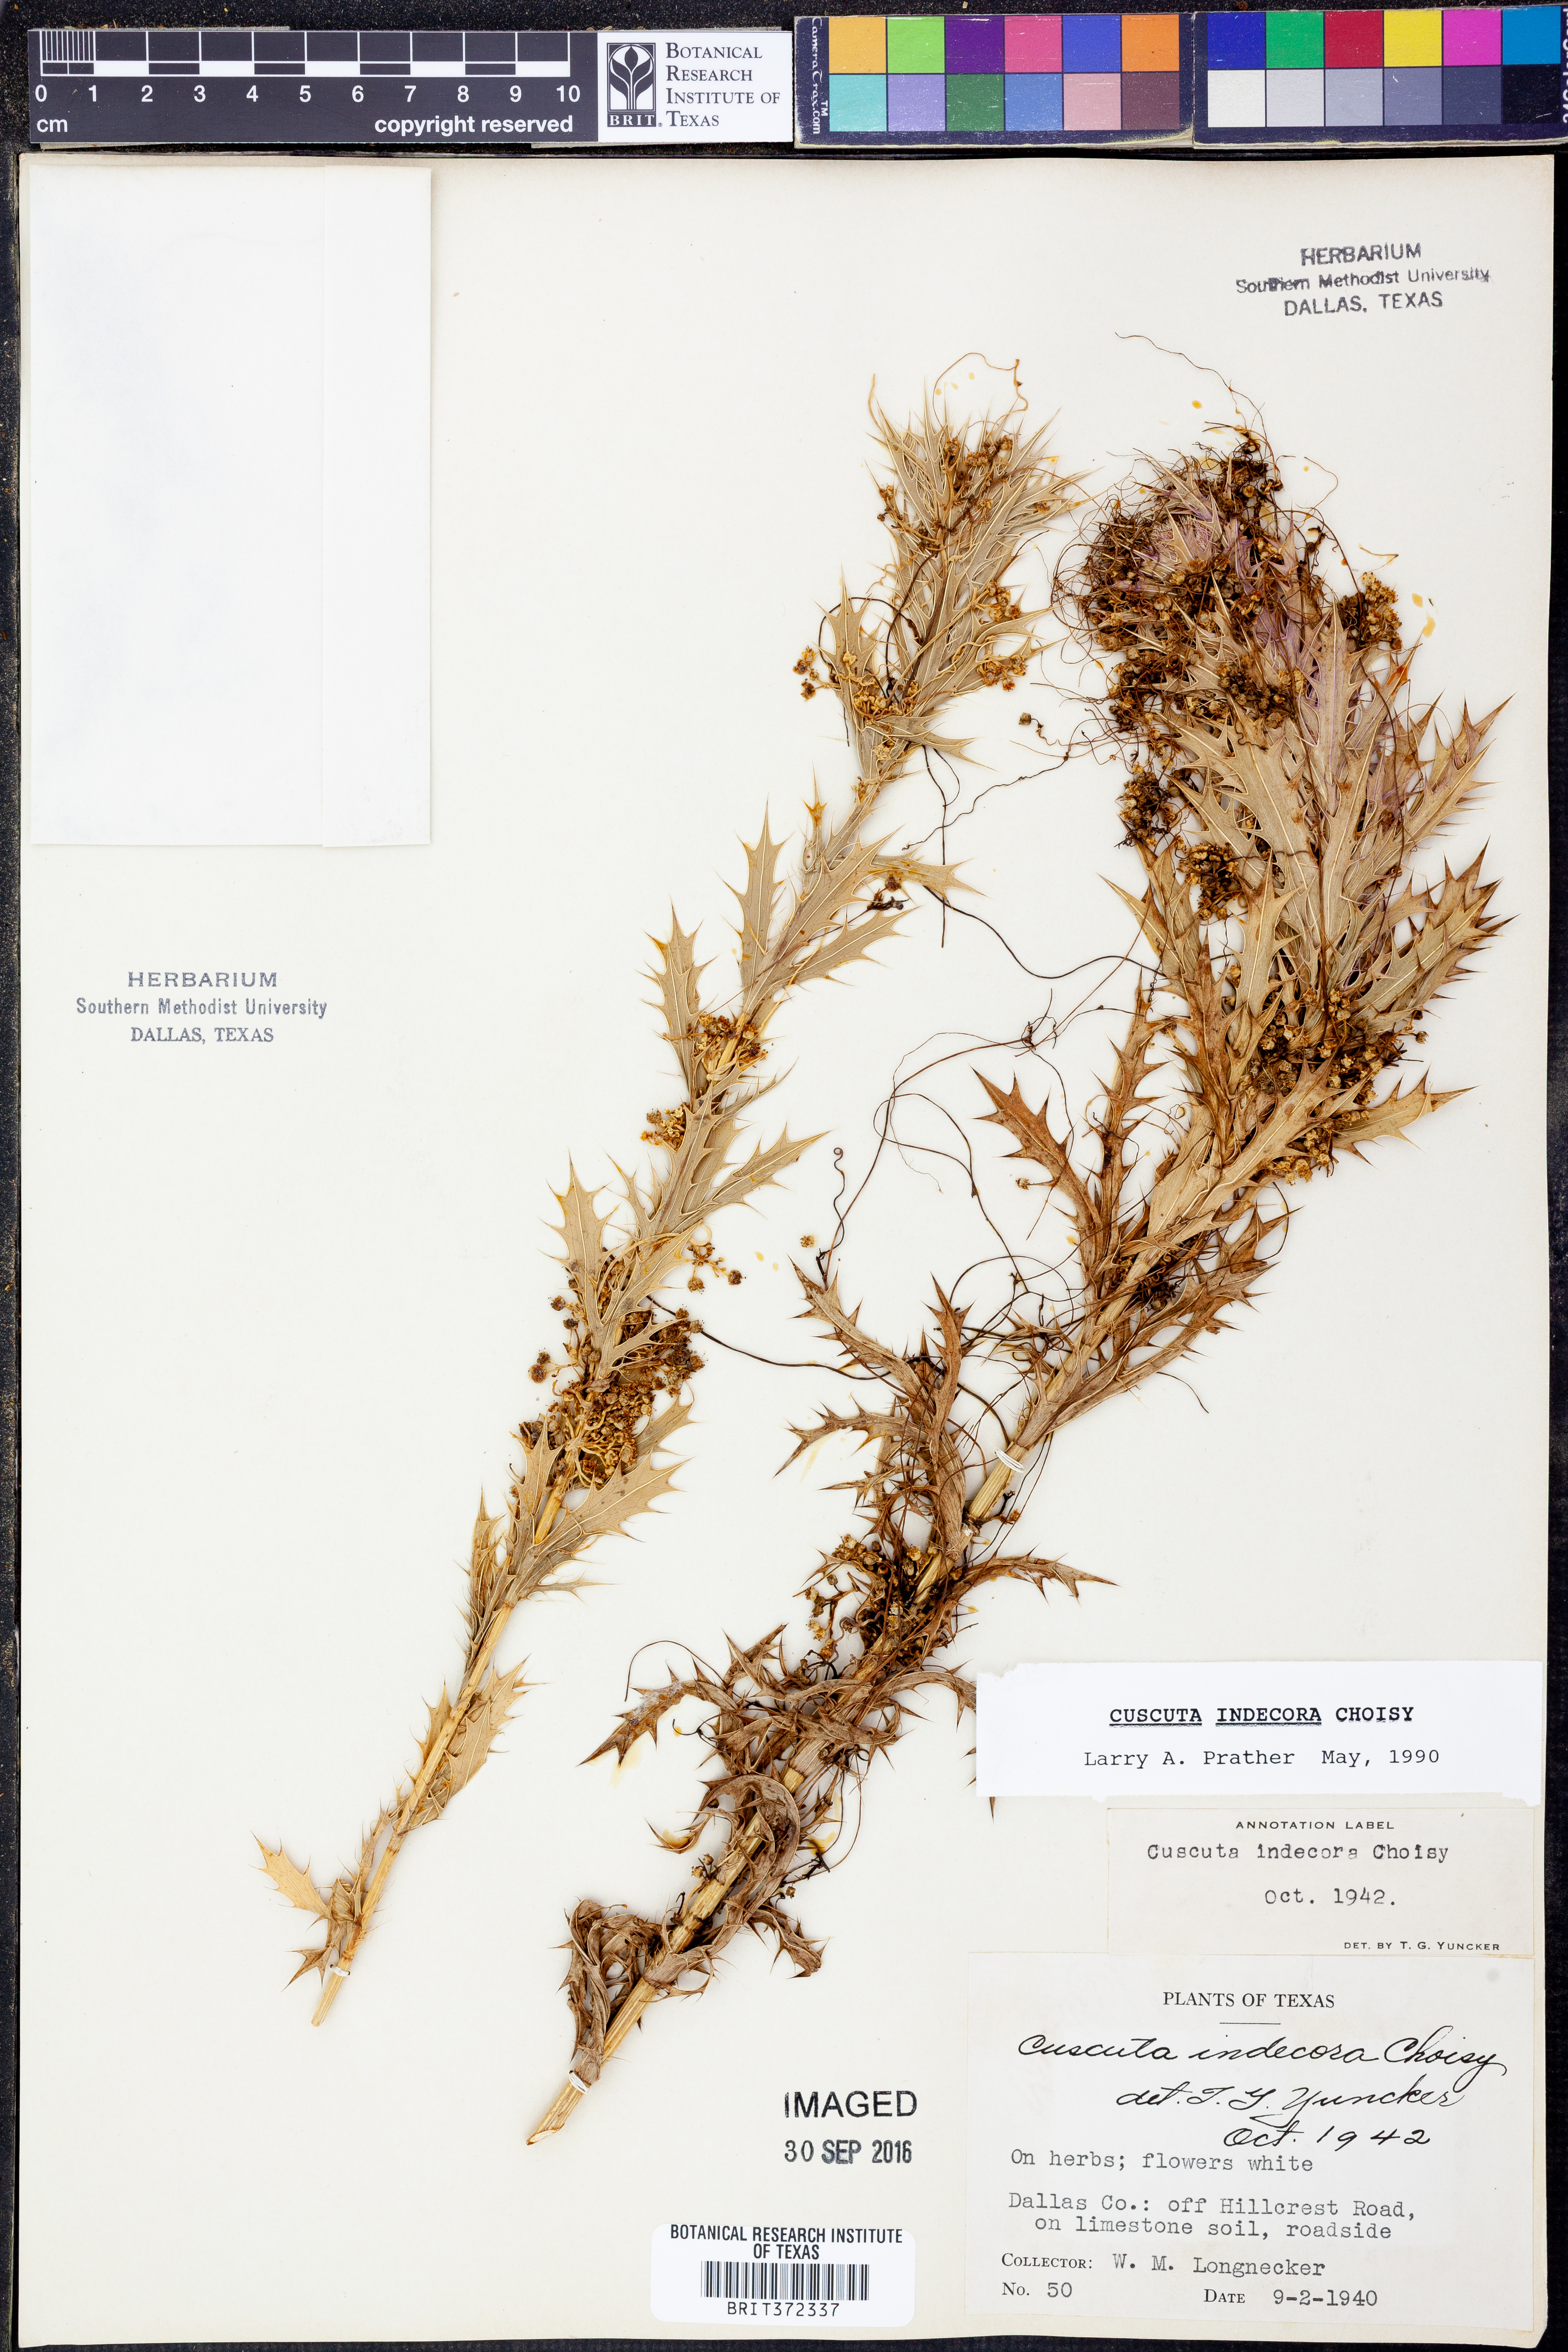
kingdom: Plantae
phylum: Tracheophyta
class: Magnoliopsida
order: Solanales
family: Convolvulaceae
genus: Cuscuta
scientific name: Cuscuta indecora
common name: Large-seed dodder
